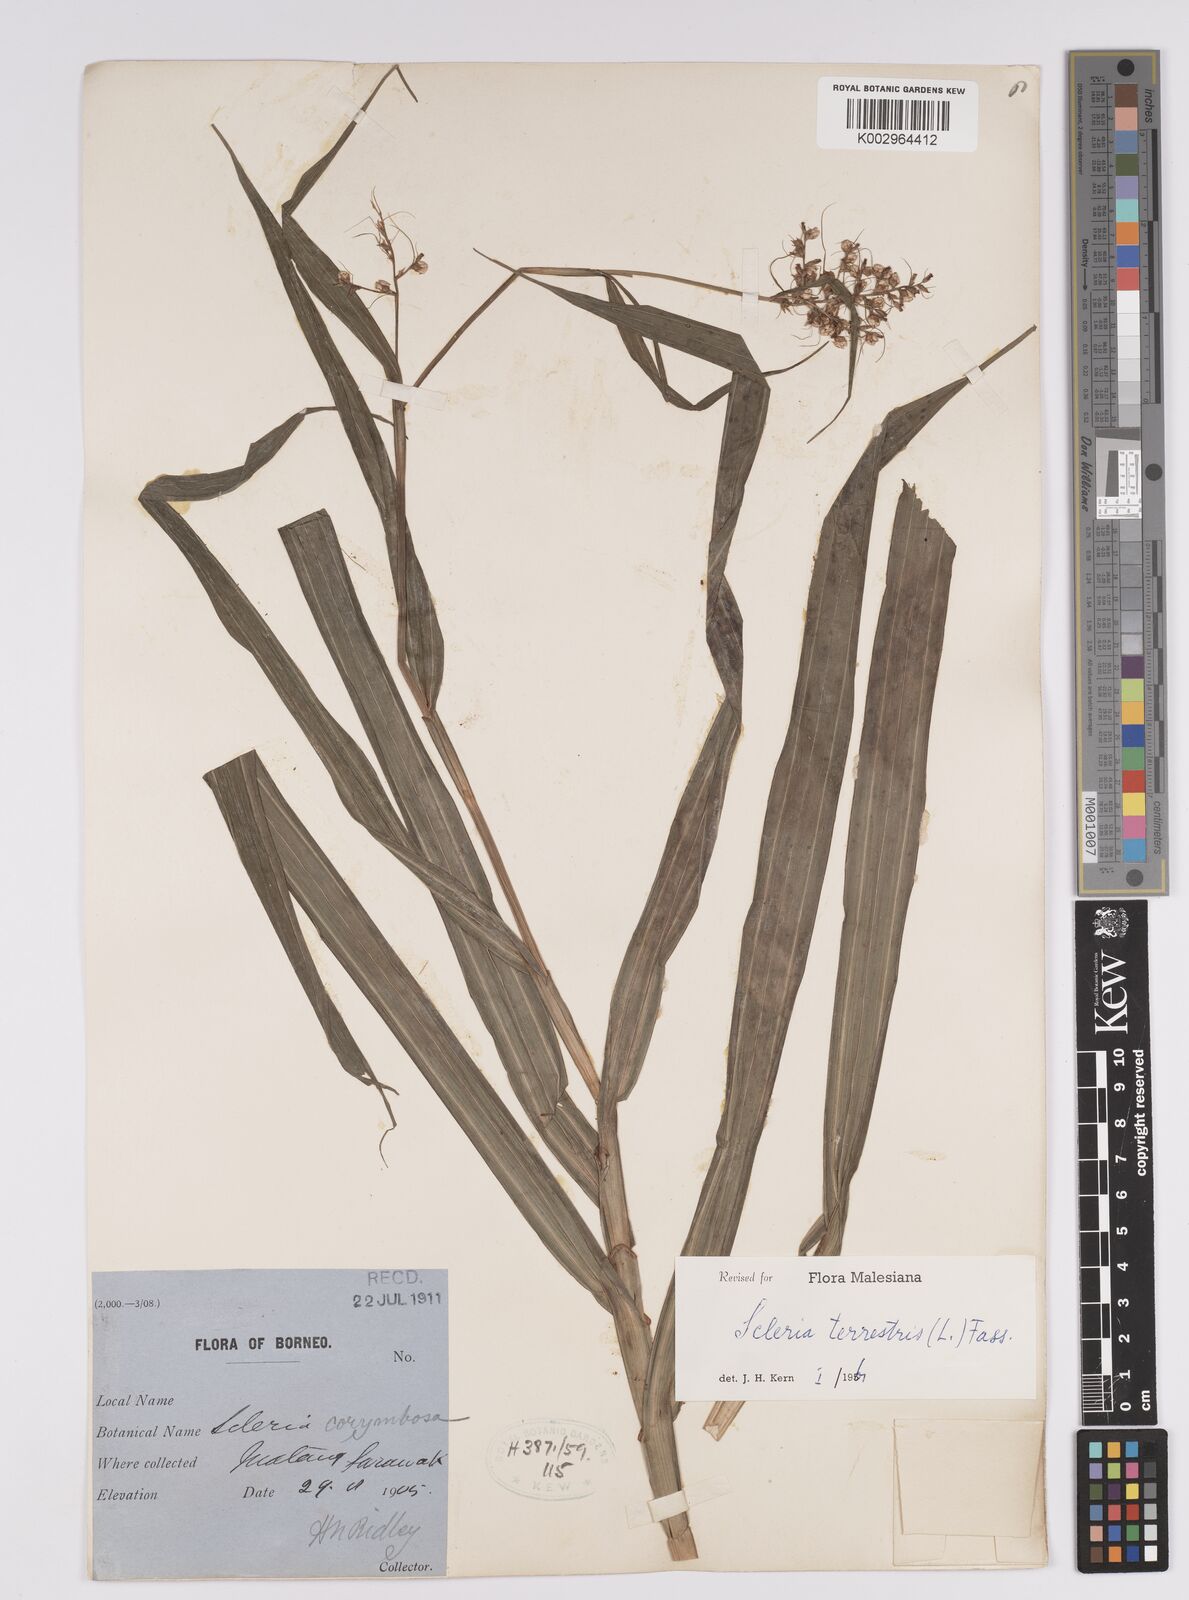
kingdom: Plantae
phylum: Tracheophyta
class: Liliopsida
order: Poales
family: Cyperaceae
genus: Scleria
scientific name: Scleria terrestris
